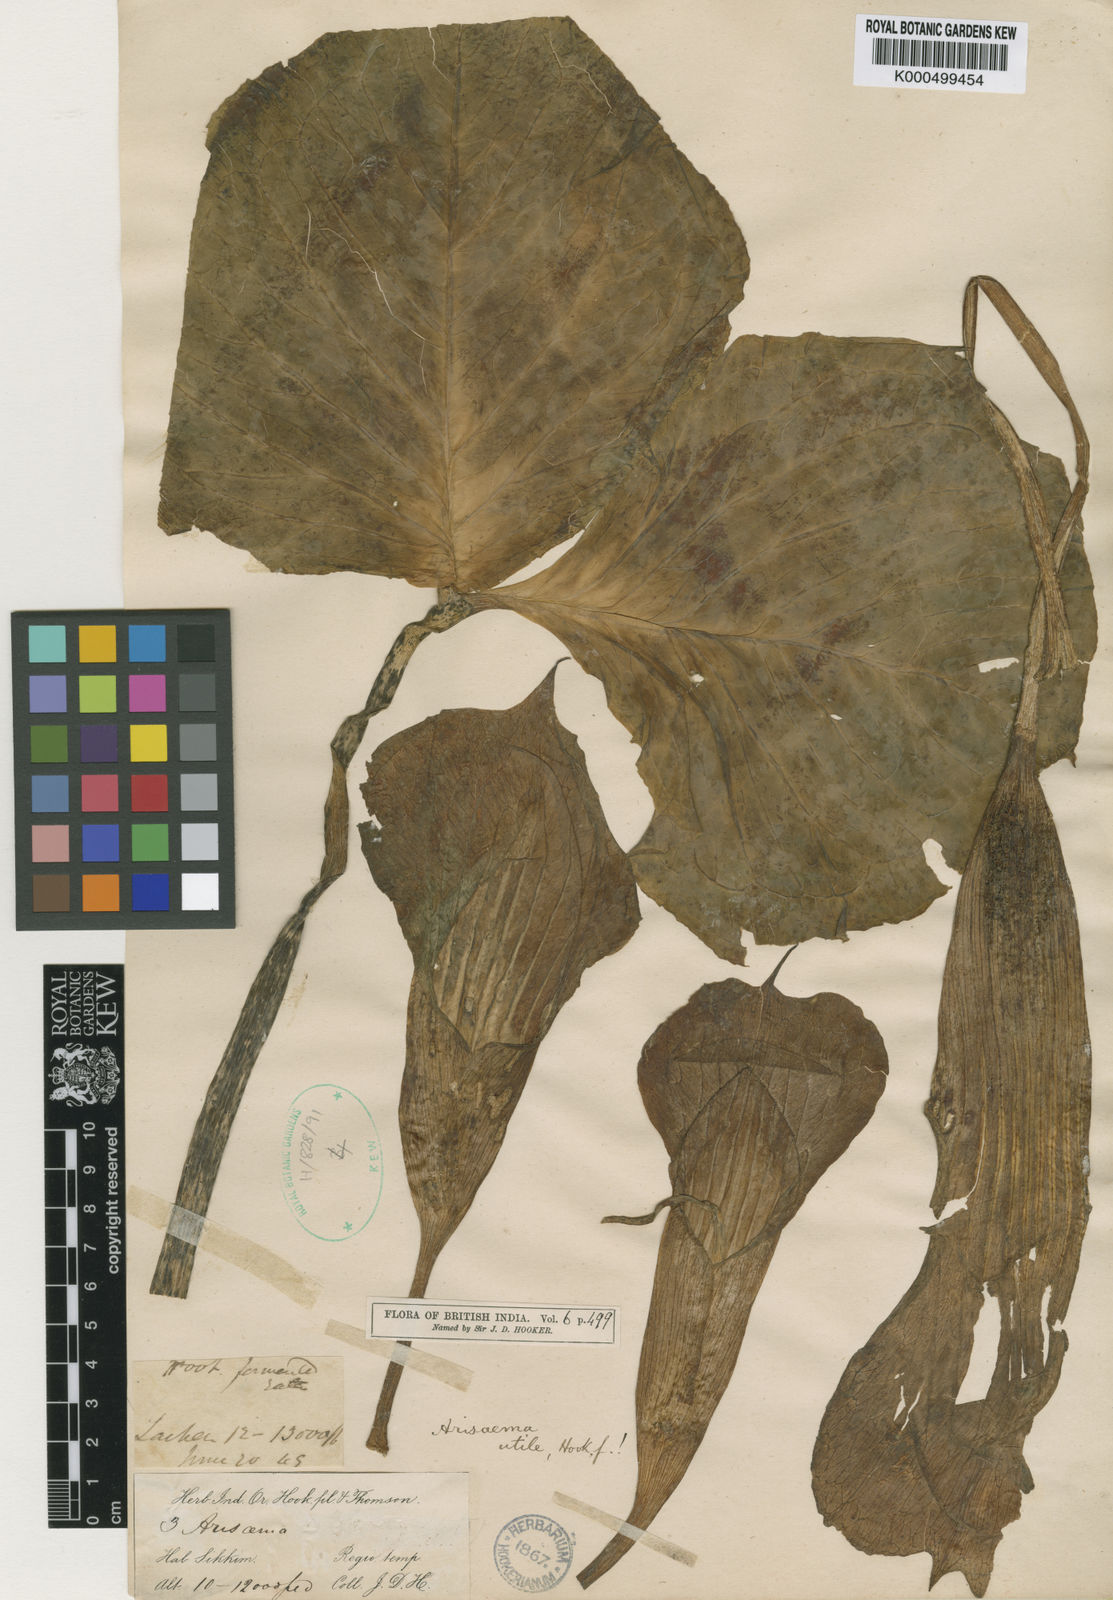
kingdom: Plantae
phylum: Tracheophyta
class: Liliopsida
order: Alismatales
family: Araceae
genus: Arisaema
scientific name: Arisaema propinquum
